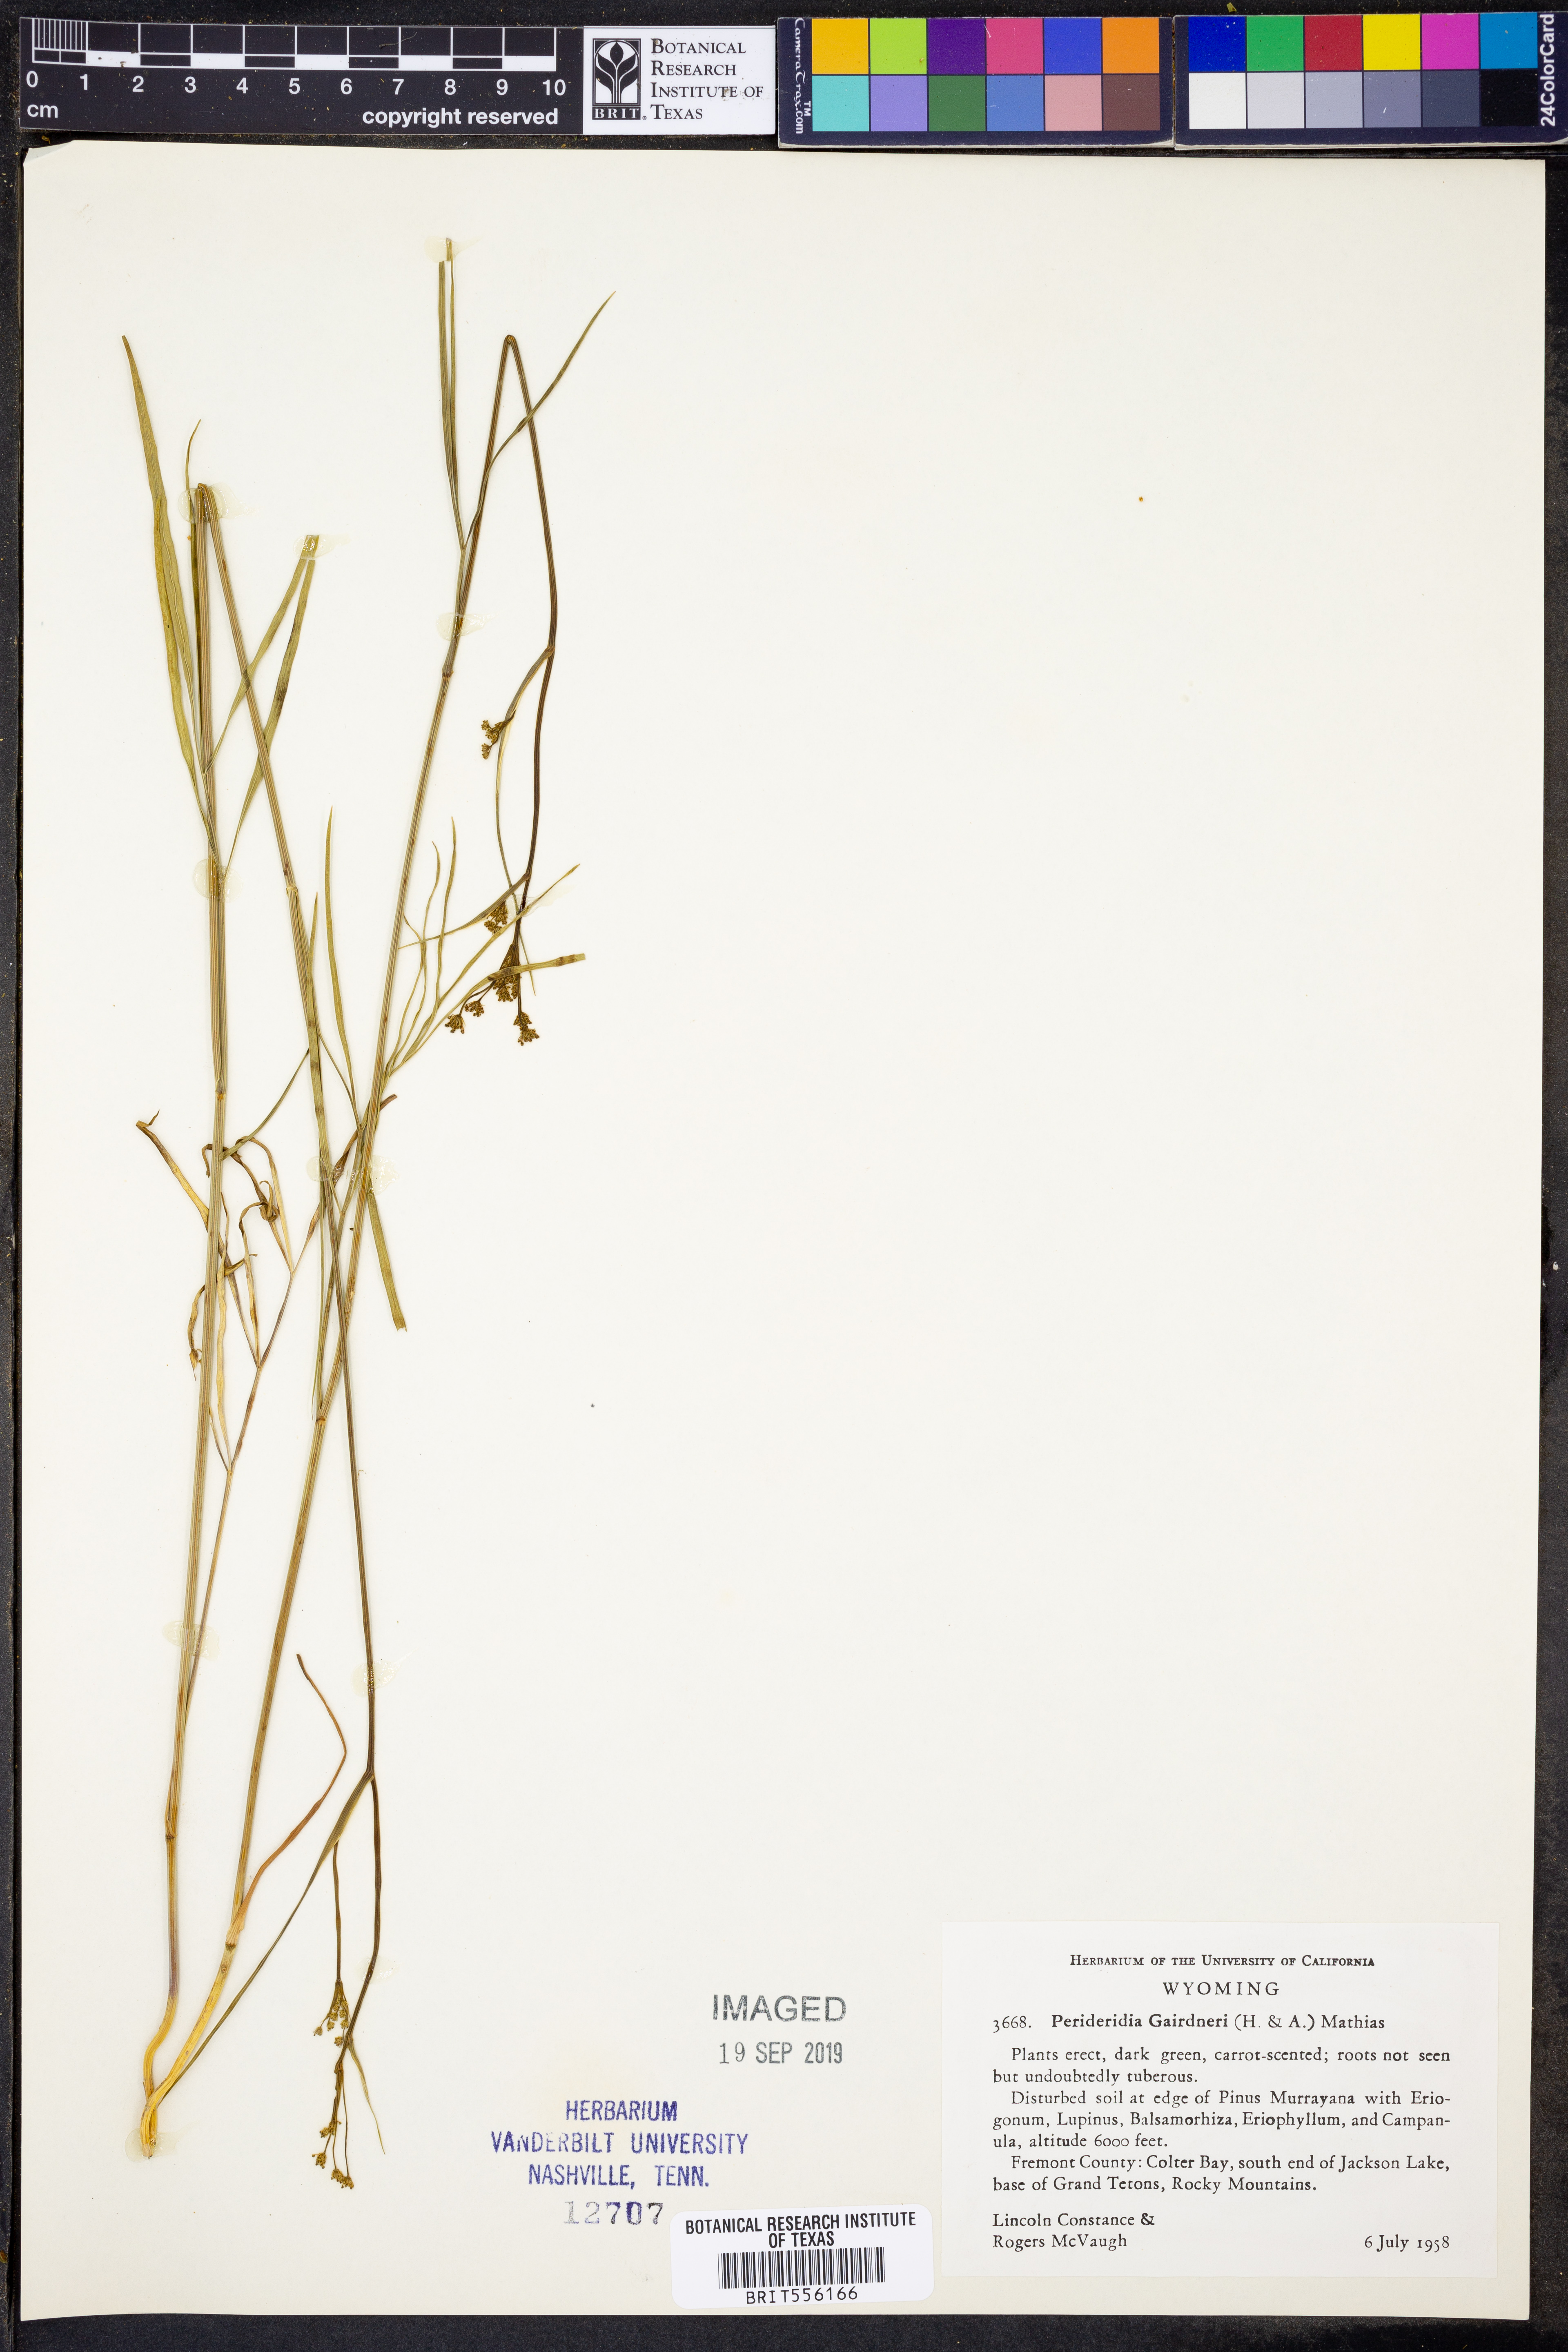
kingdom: Plantae
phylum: Tracheophyta
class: Magnoliopsida
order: Apiales
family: Apiaceae
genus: Perideridia
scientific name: Perideridia gairdneri
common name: False caraway
